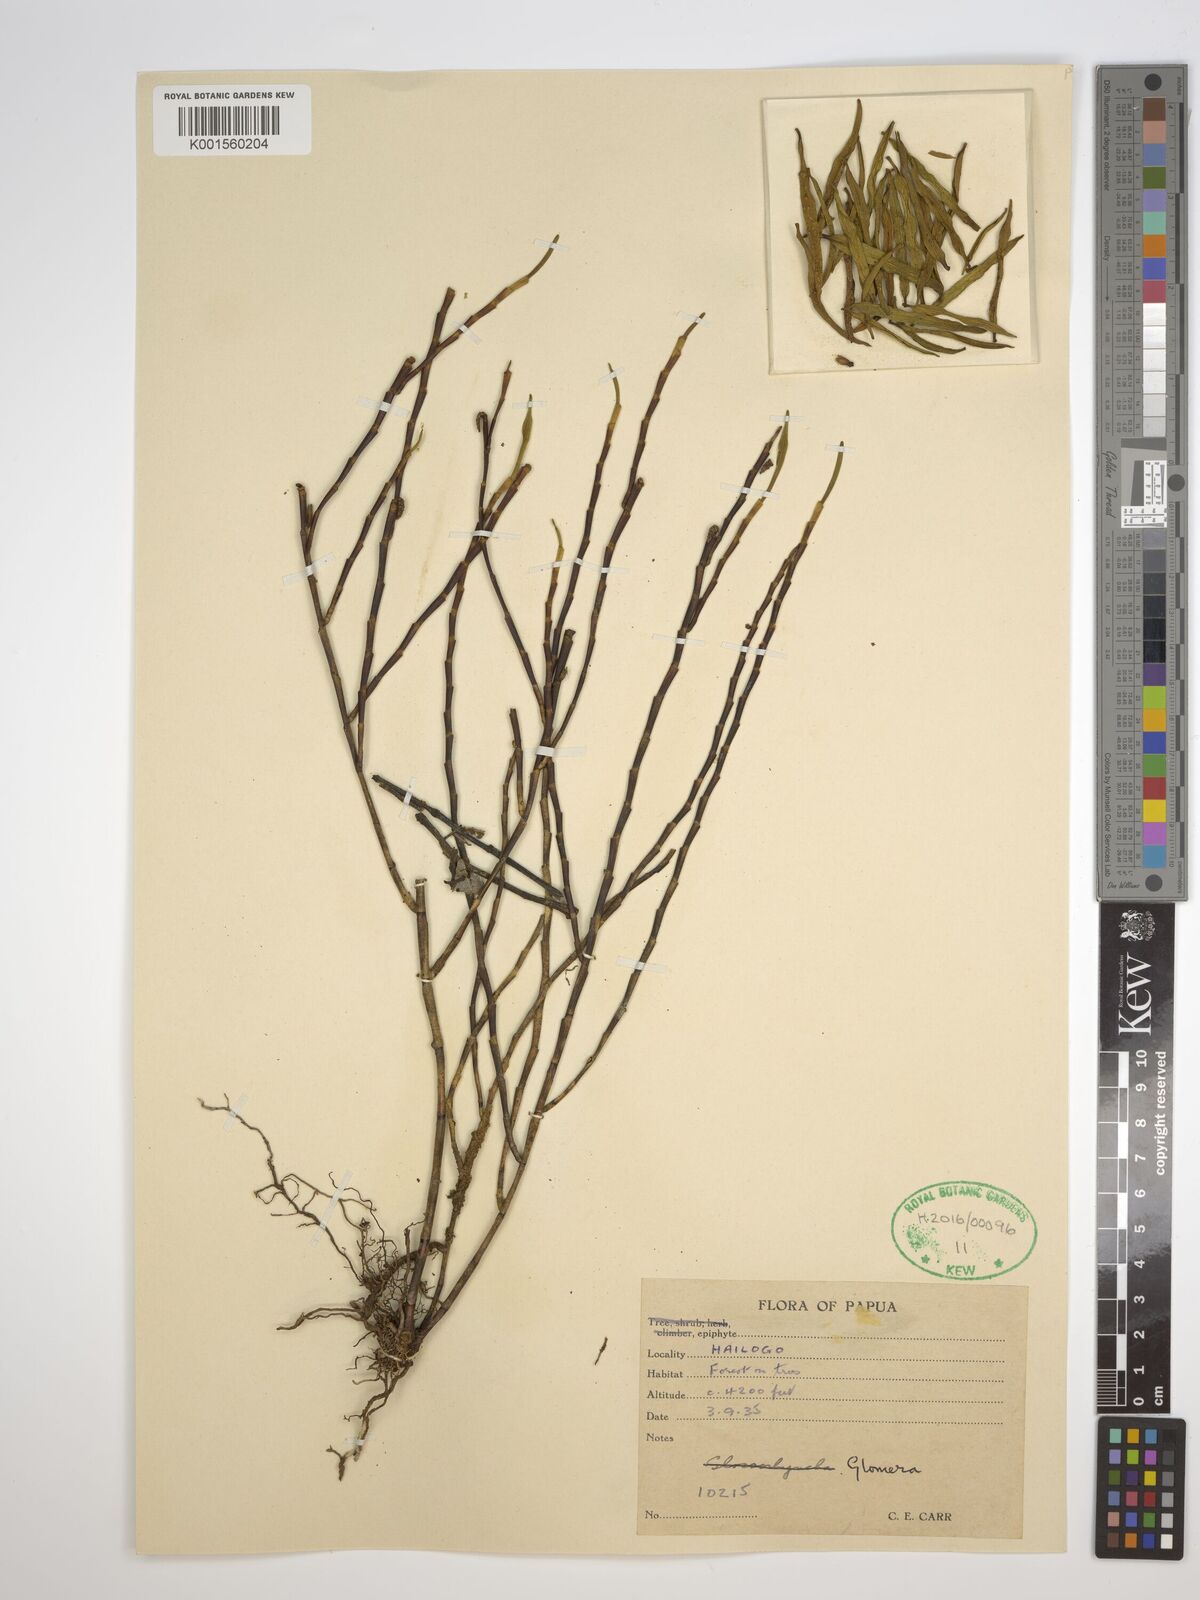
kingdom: Plantae
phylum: Tracheophyta
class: Liliopsida
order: Asparagales
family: Orchidaceae
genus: Glomera
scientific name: Glomera
